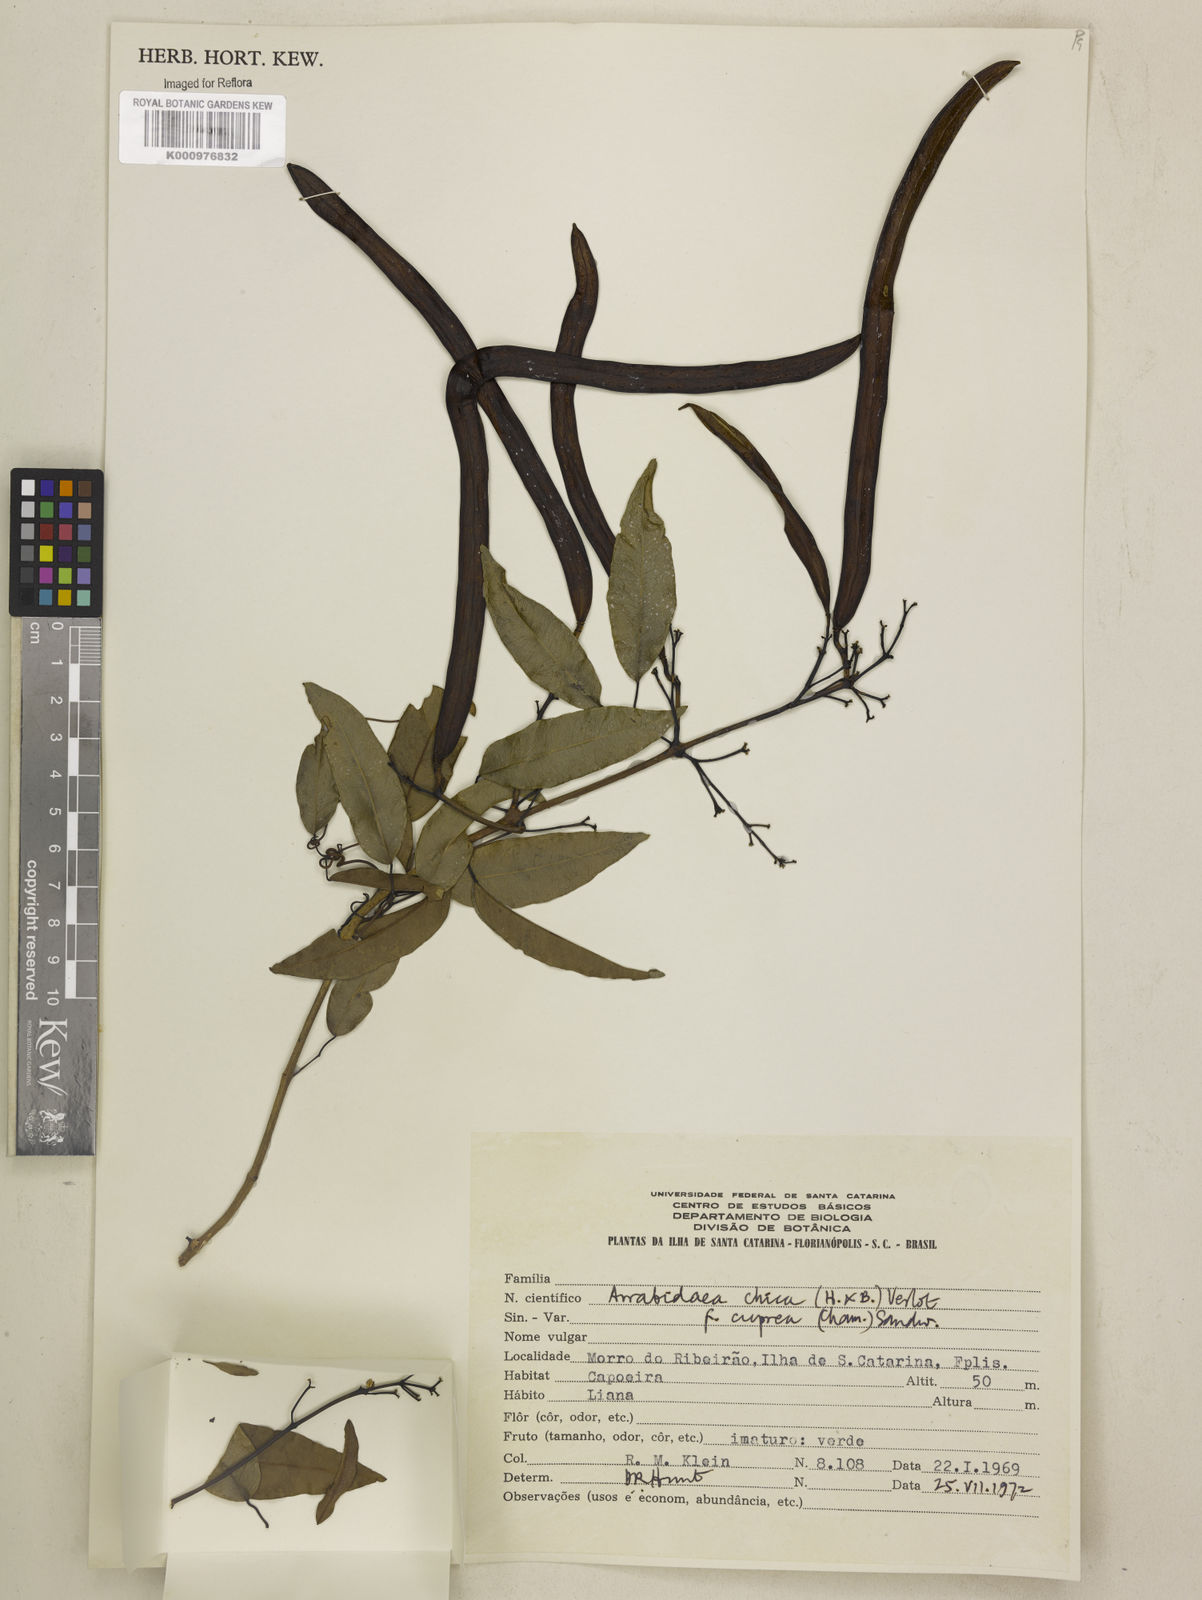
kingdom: Plantae
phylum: Tracheophyta
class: Magnoliopsida
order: Lamiales
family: Bignoniaceae
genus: Fridericia
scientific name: Fridericia chica
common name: Cricketvine
